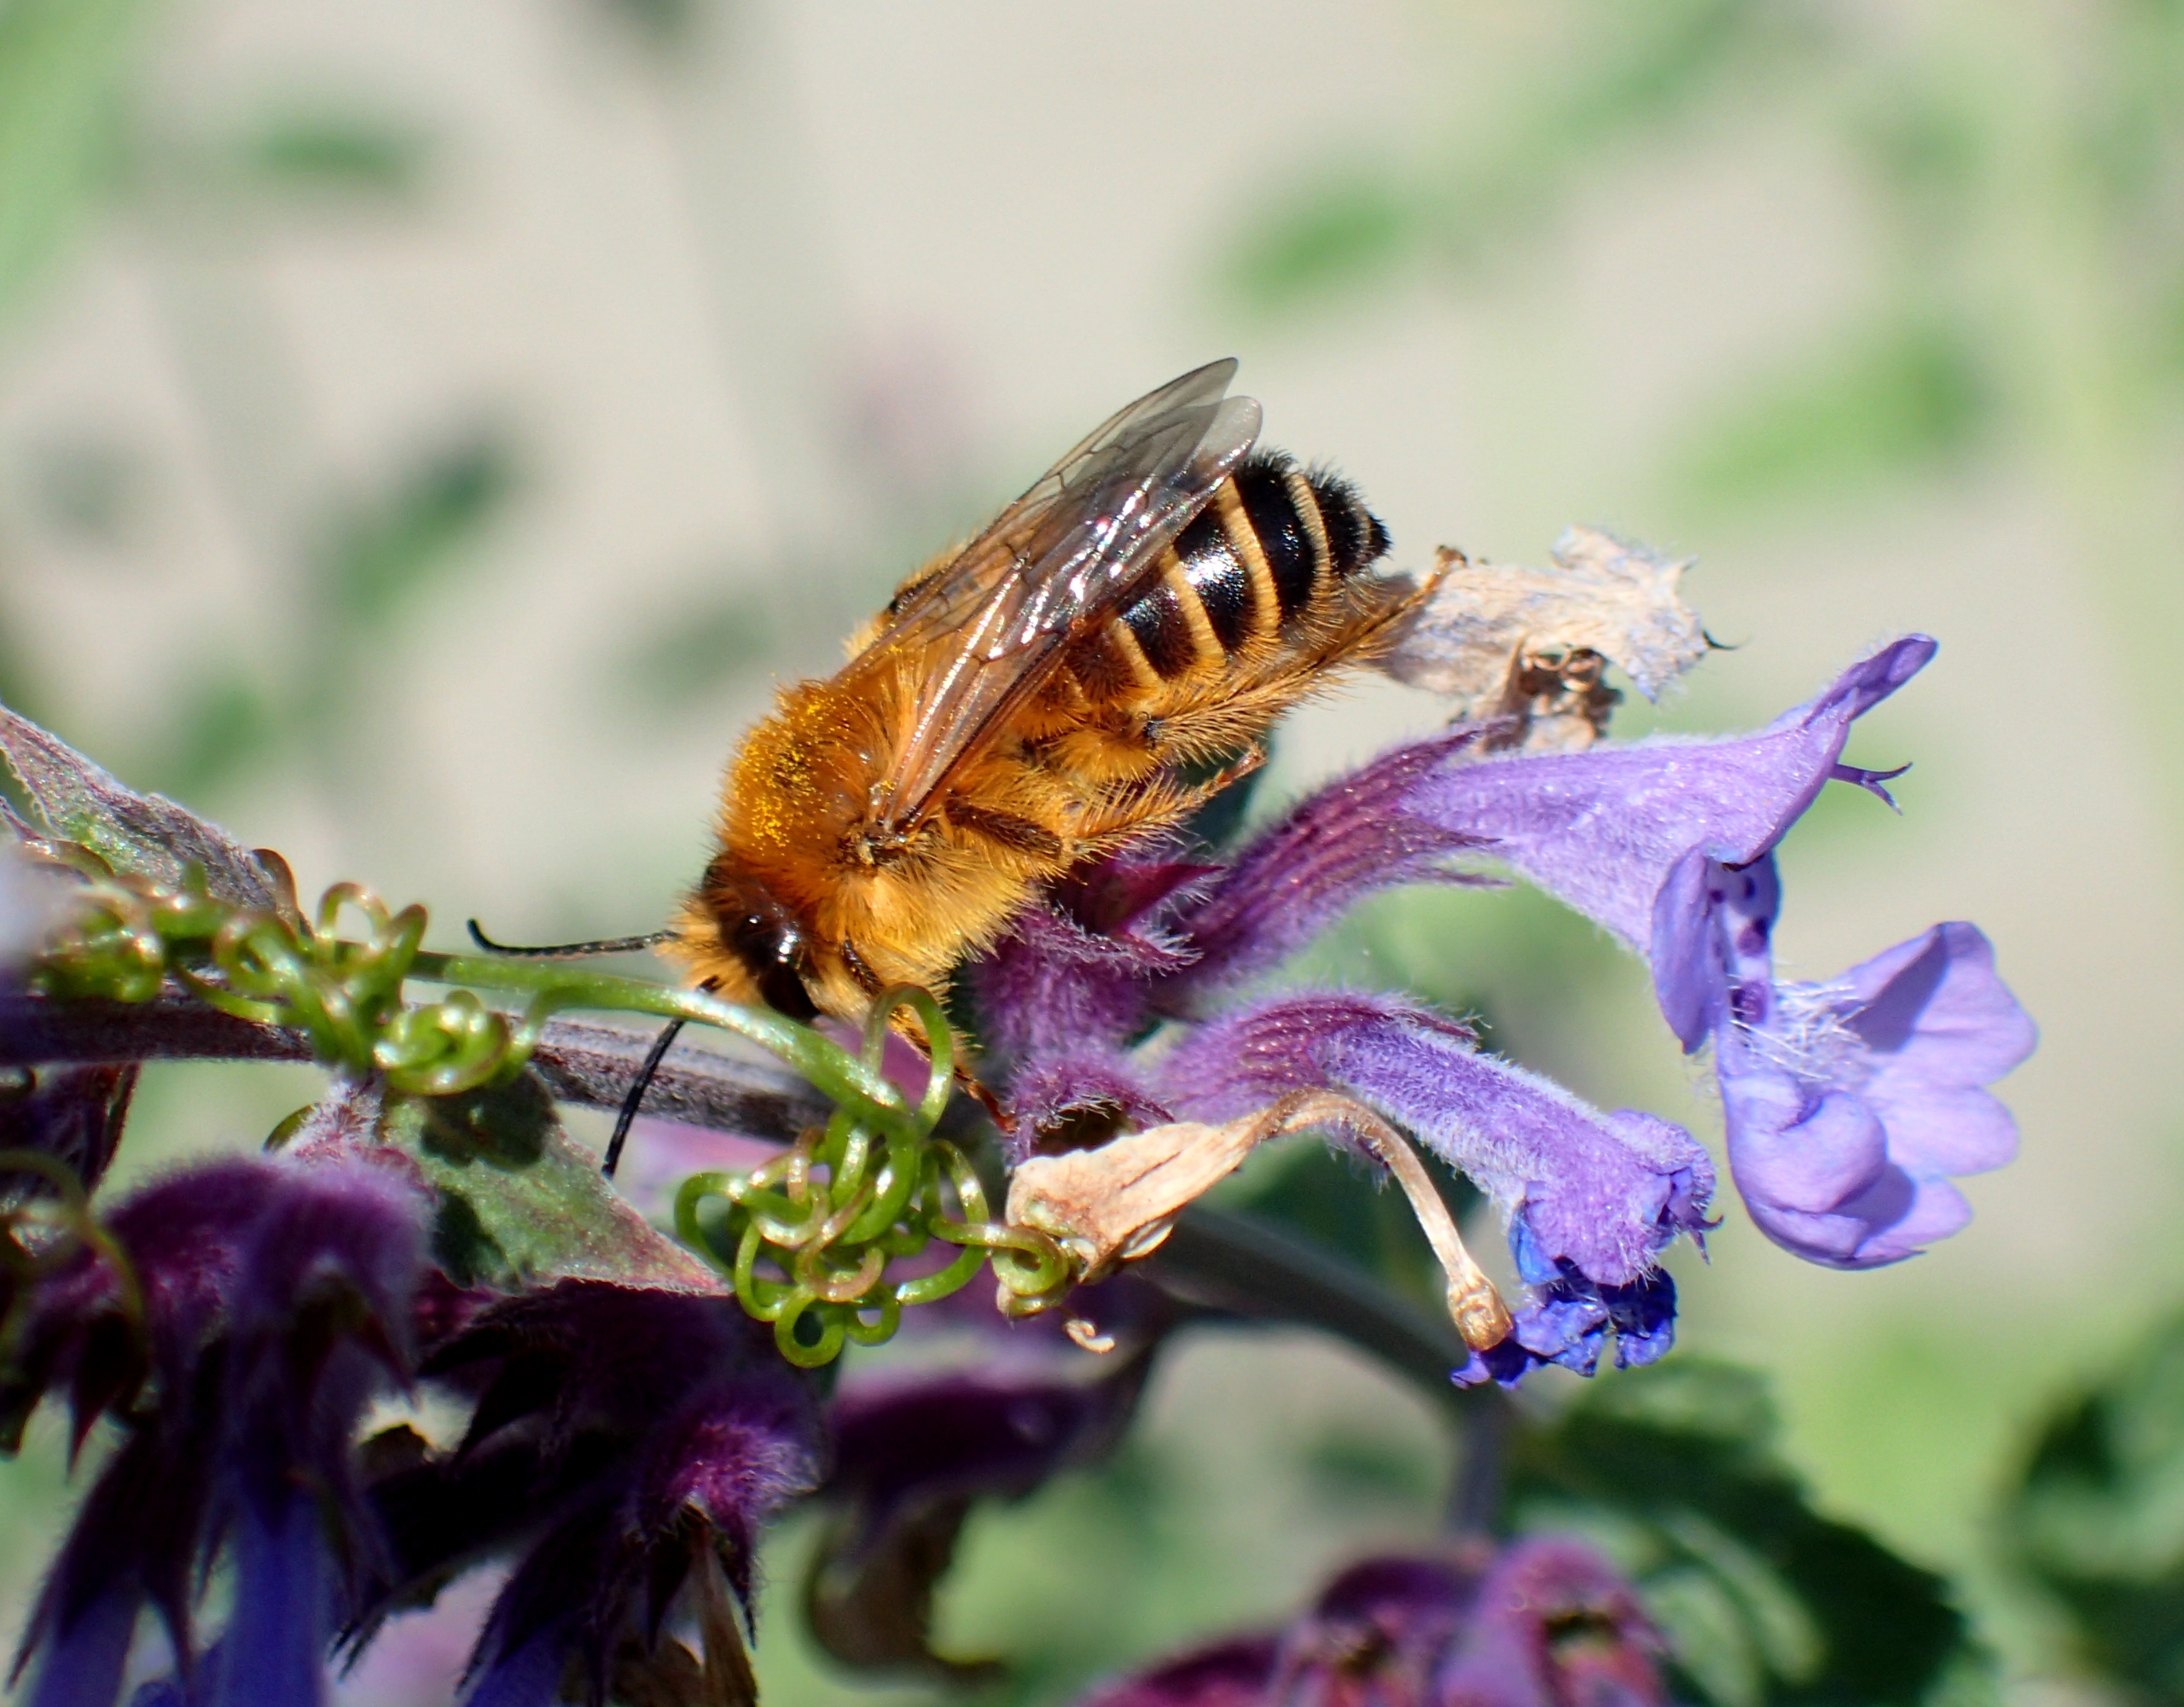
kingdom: Animalia
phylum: Arthropoda
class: Insecta
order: Hymenoptera
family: Melittidae
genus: Dasypoda
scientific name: Dasypoda hirtipes
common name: Pragtbuksebi
